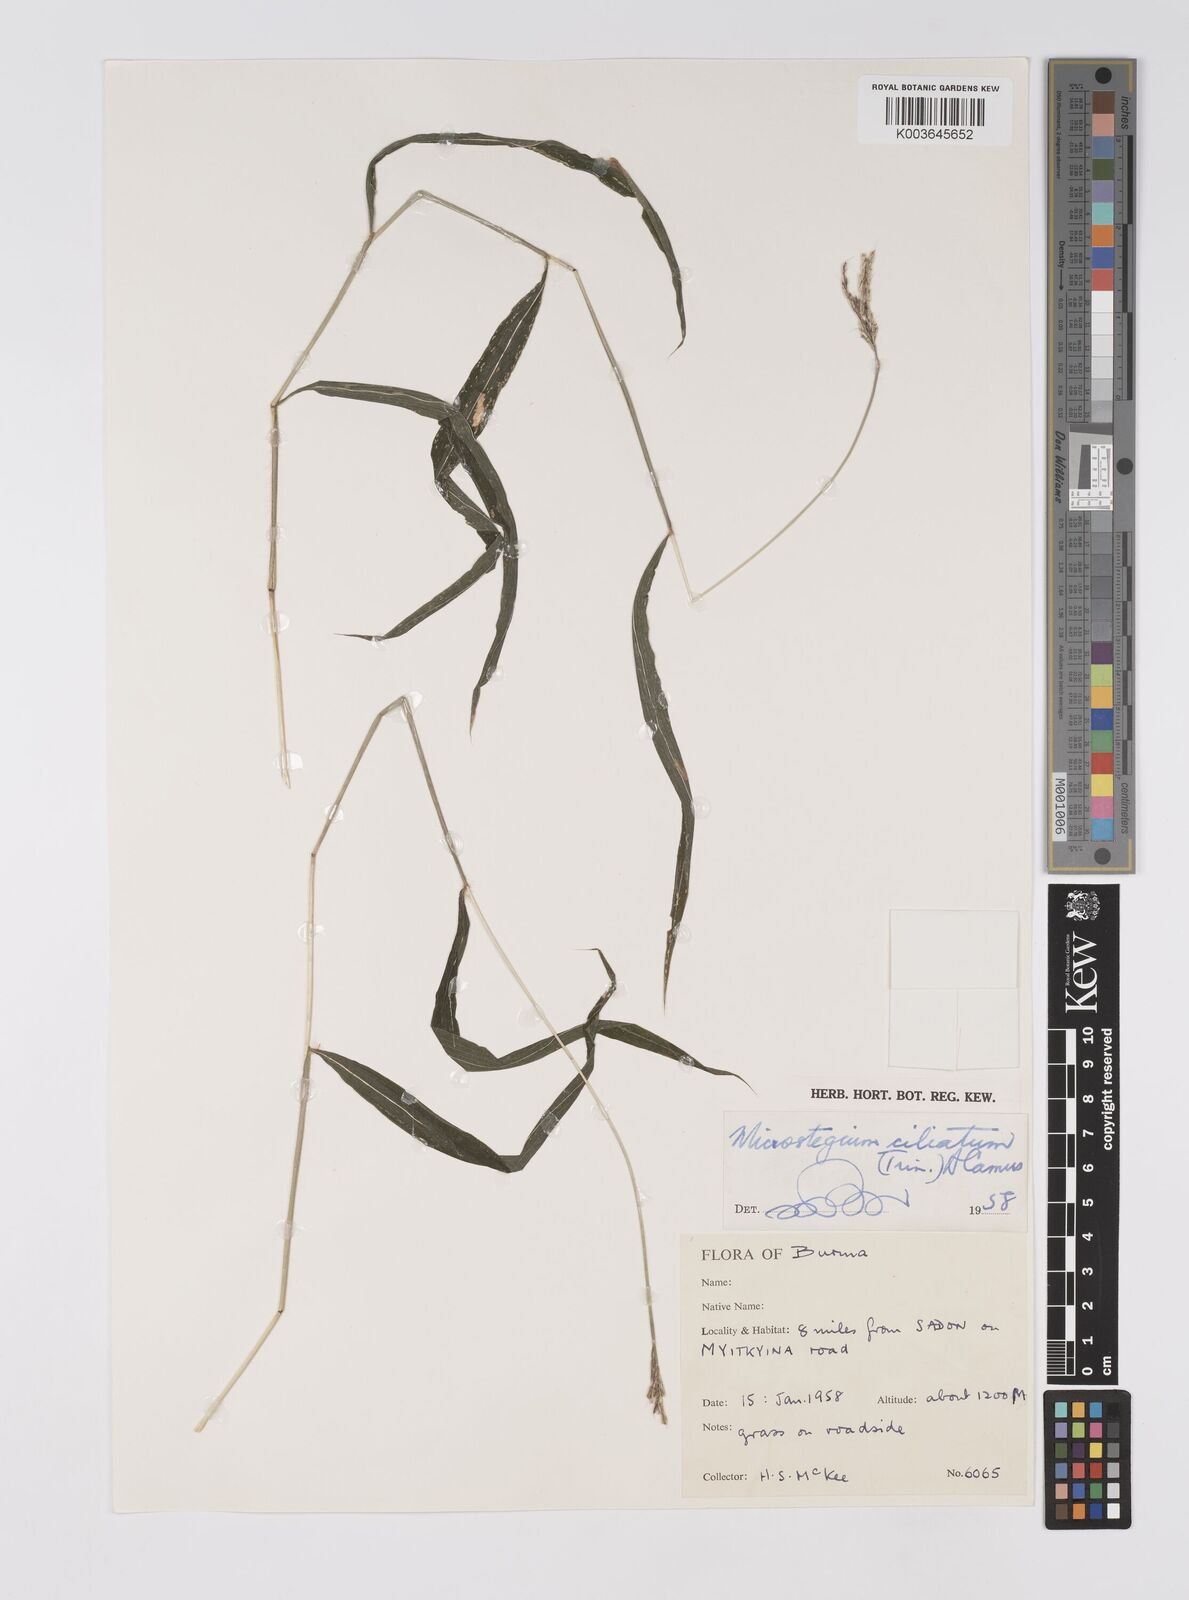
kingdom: Plantae
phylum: Tracheophyta
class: Liliopsida
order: Poales
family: Poaceae
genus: Microstegium
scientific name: Microstegium fasciculatum
